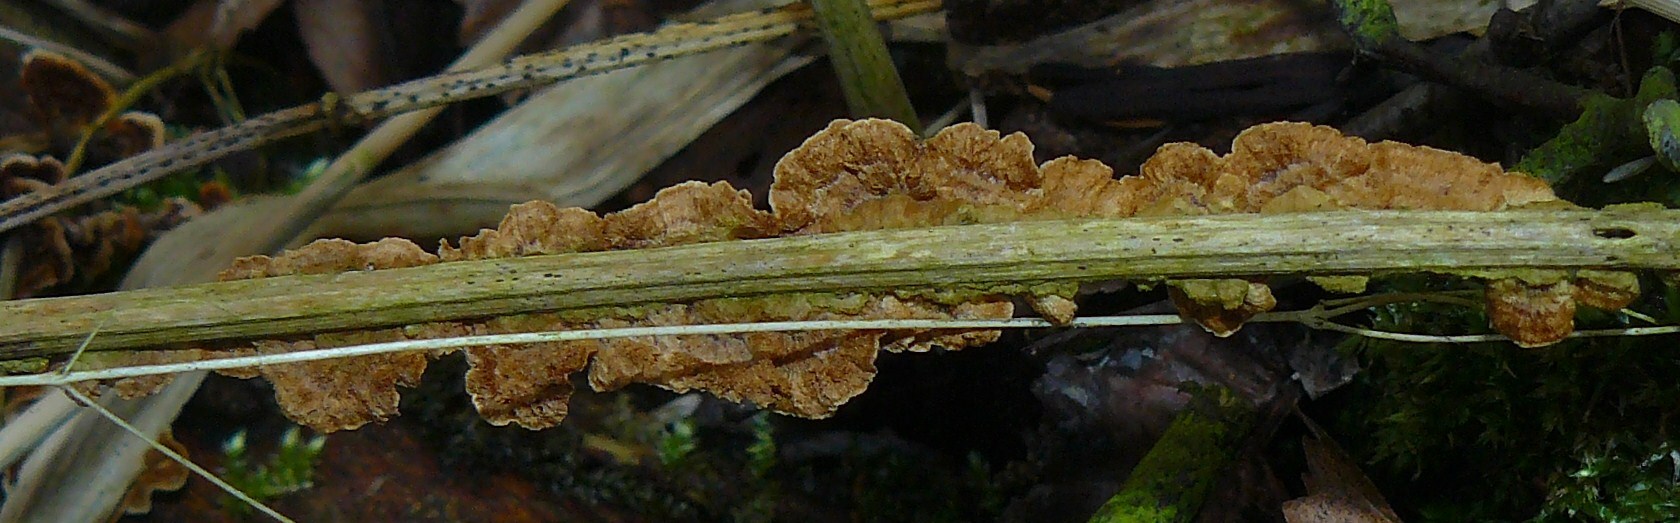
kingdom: Fungi
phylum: Basidiomycota
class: Agaricomycetes
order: Hymenochaetales
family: Hymenochaetaceae
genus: Hydnoporia
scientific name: Hydnoporia tabacina
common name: tobaksbrun ruslædersvamp
